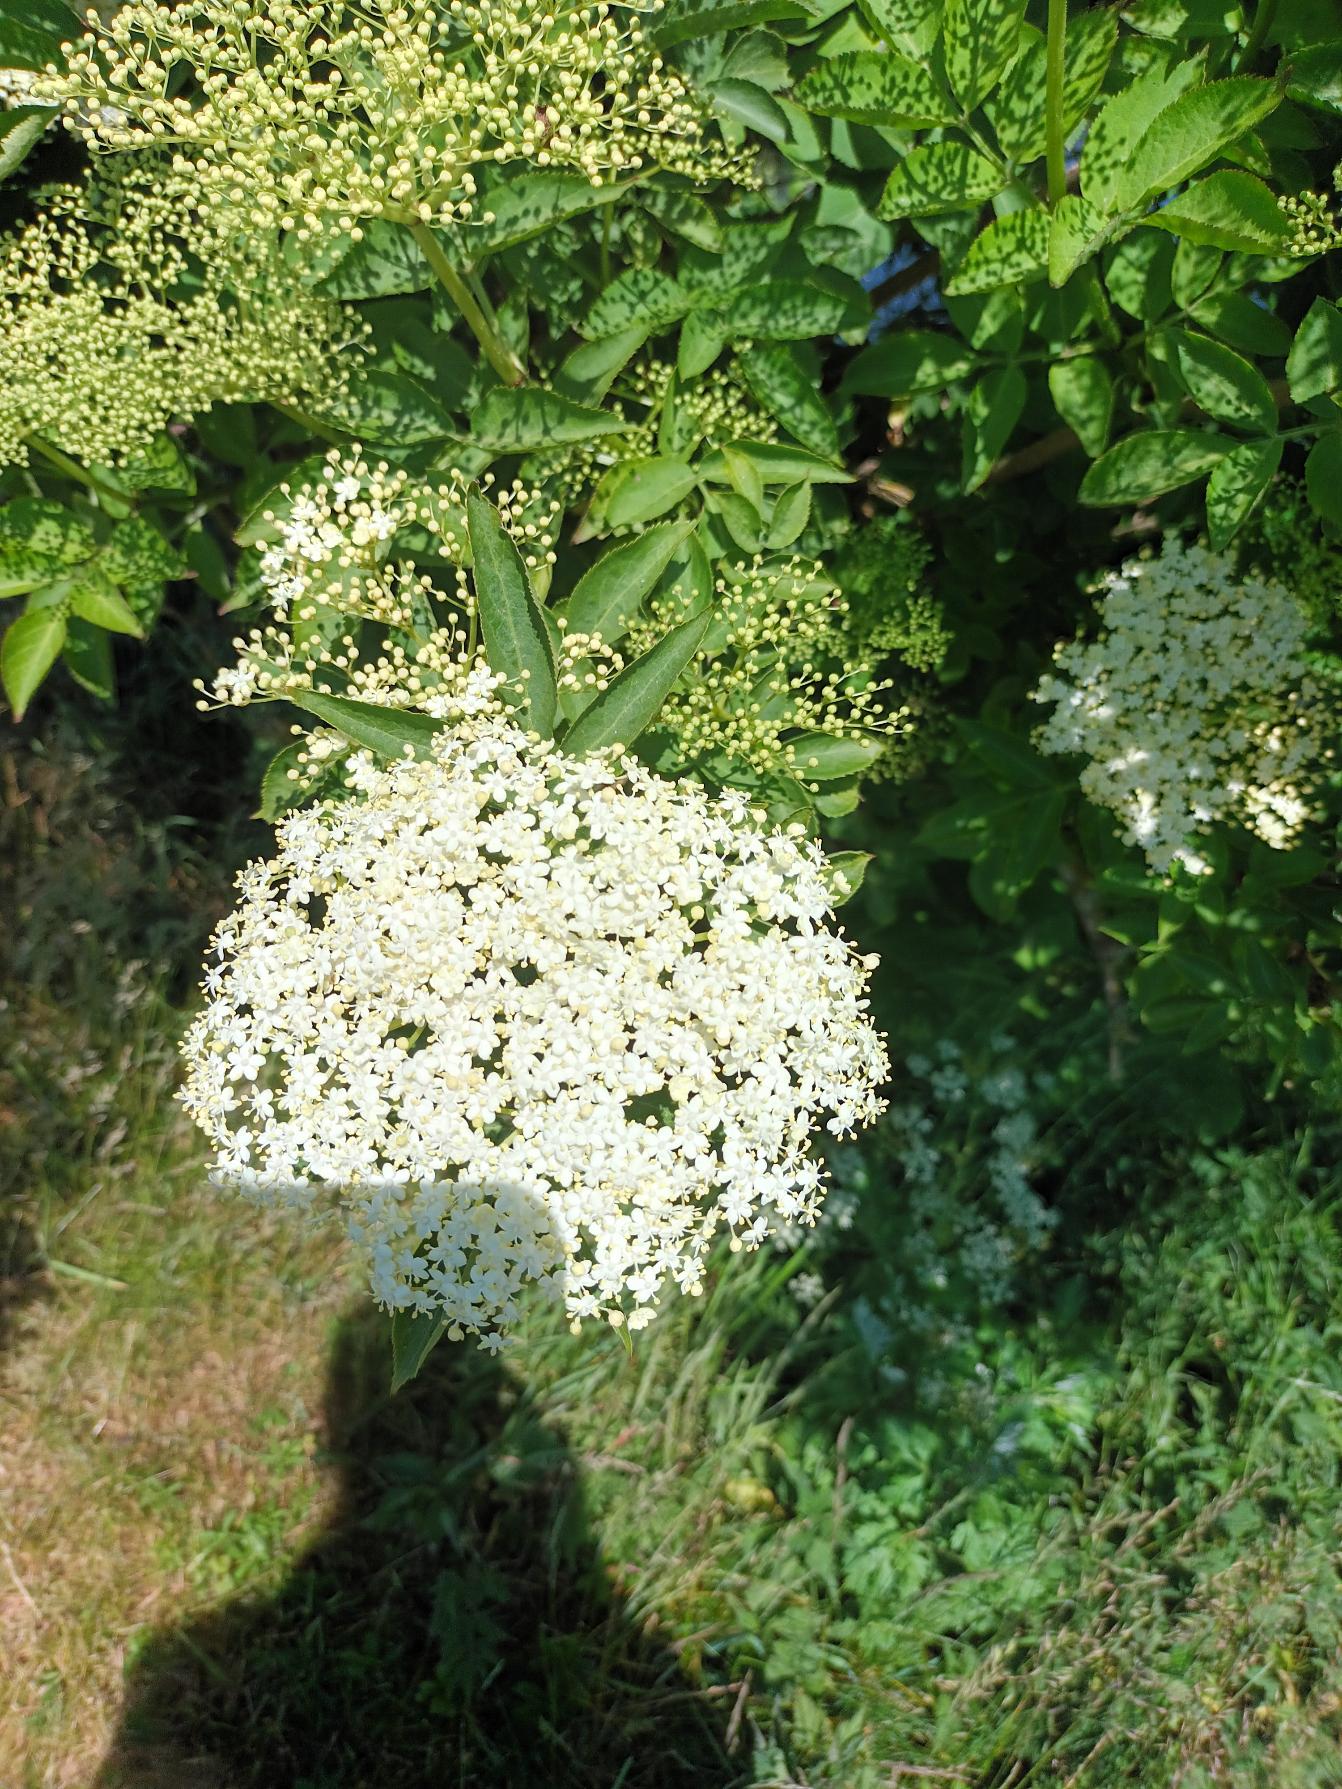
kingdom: Plantae
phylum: Tracheophyta
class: Magnoliopsida
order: Dipsacales
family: Viburnaceae
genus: Sambucus
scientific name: Sambucus nigra
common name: Almindelig hyld
